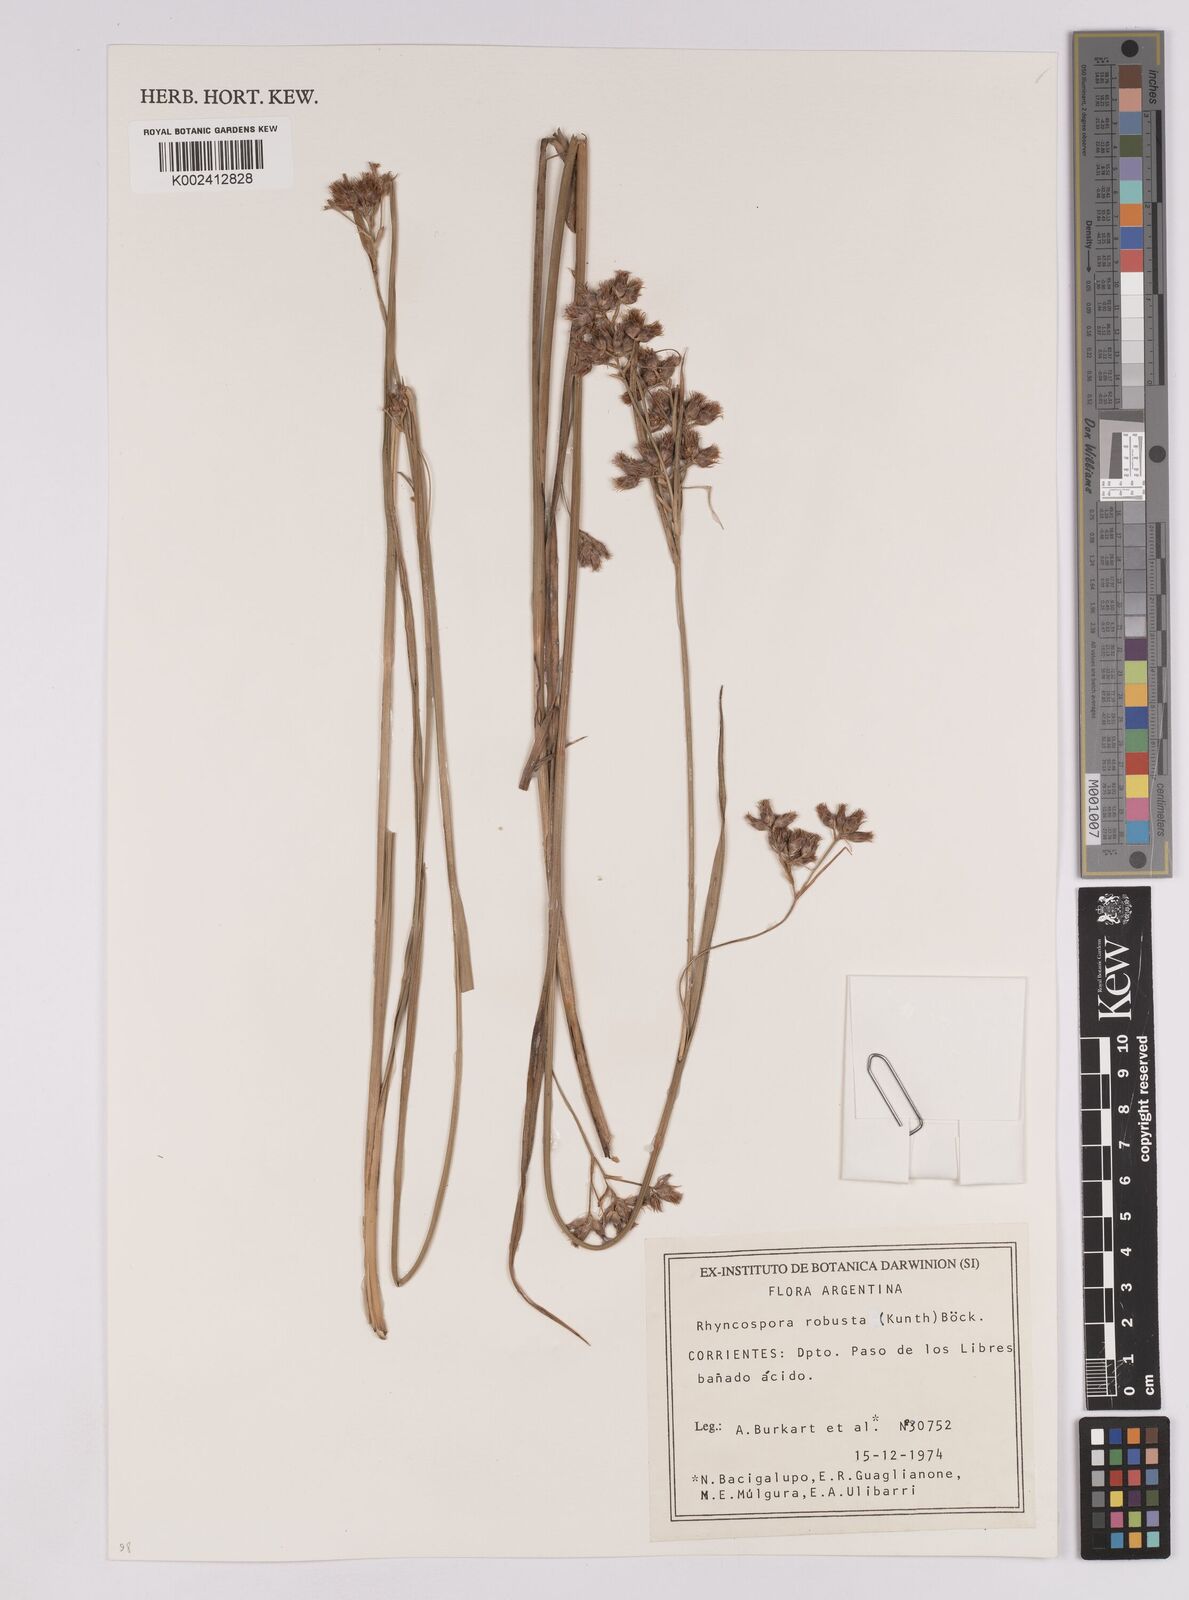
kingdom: Plantae
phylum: Tracheophyta
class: Liliopsida
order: Poales
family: Cyperaceae
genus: Rhynchospora
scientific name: Rhynchospora robusta
